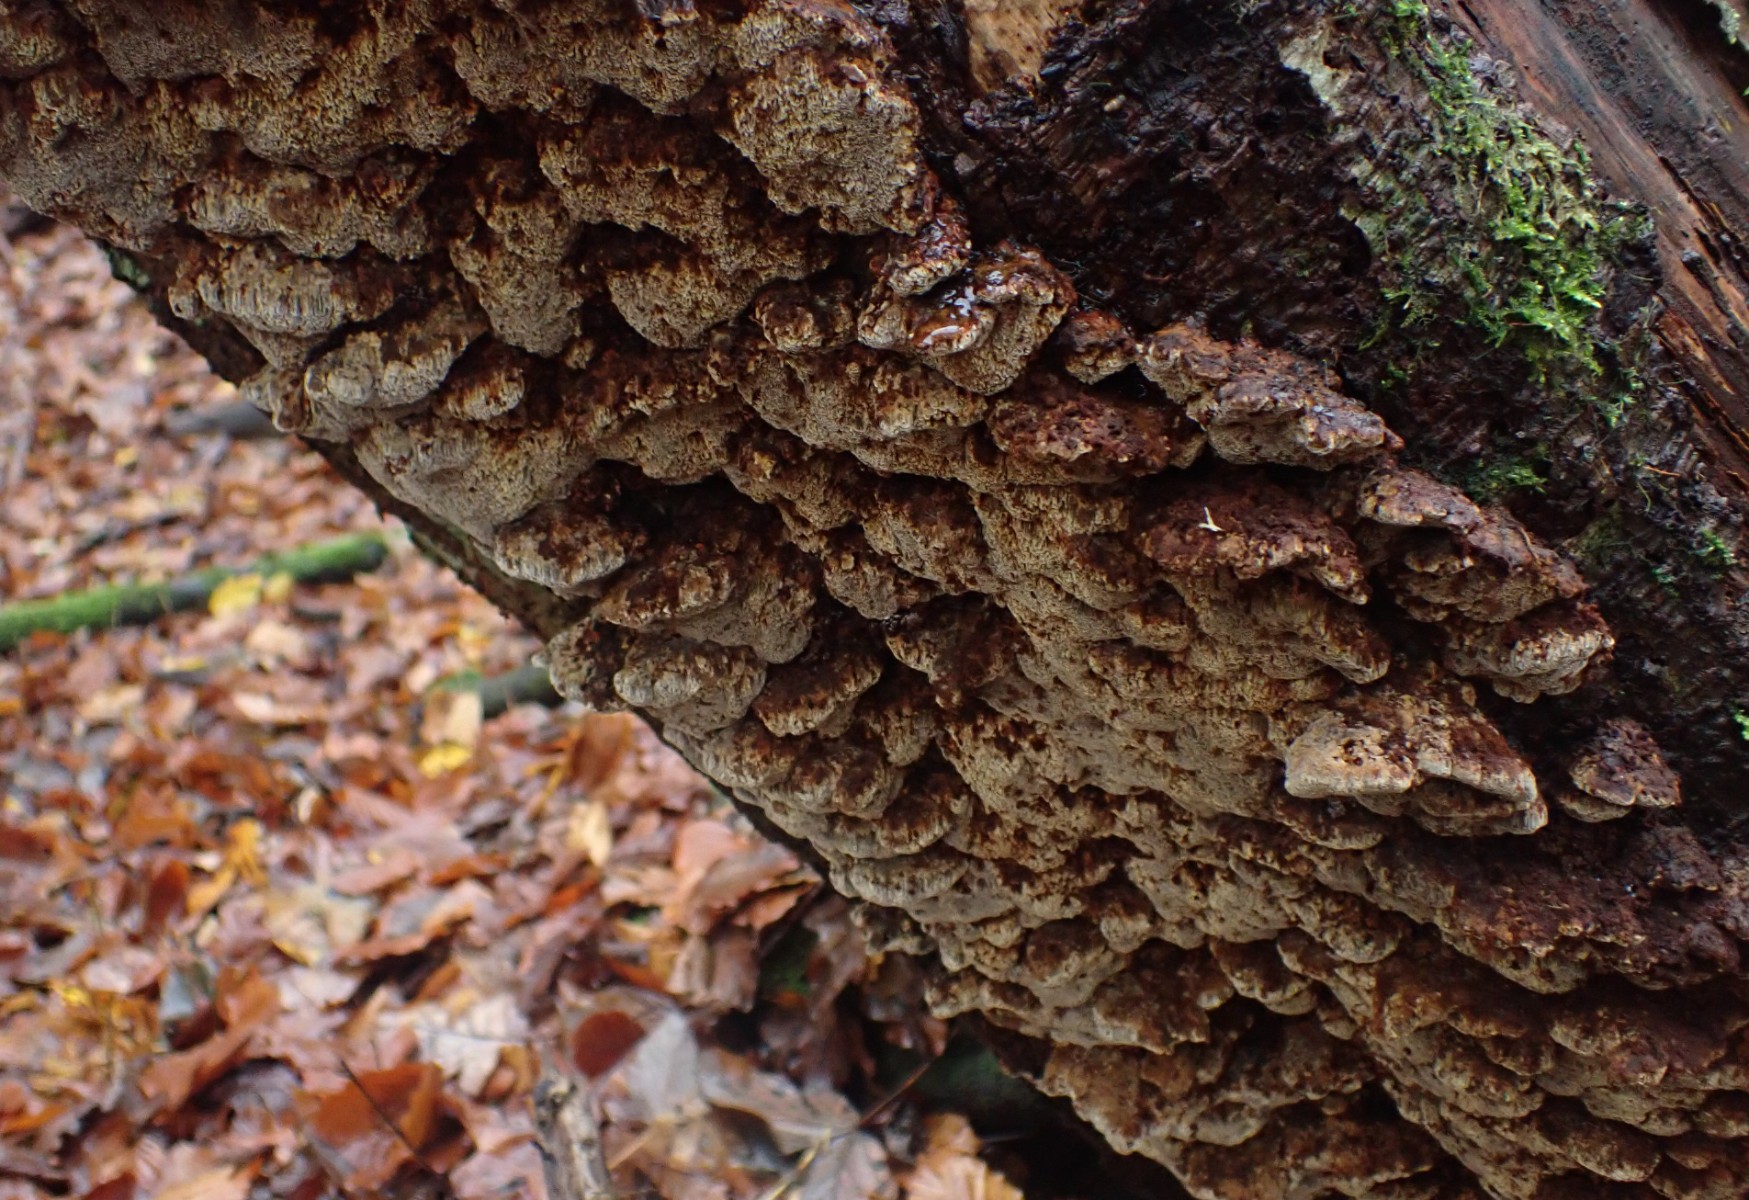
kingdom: Fungi
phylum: Basidiomycota
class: Agaricomycetes
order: Hymenochaetales
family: Hymenochaetaceae
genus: Mensularia
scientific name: Mensularia nodulosa
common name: bøge-spejlporesvamp
